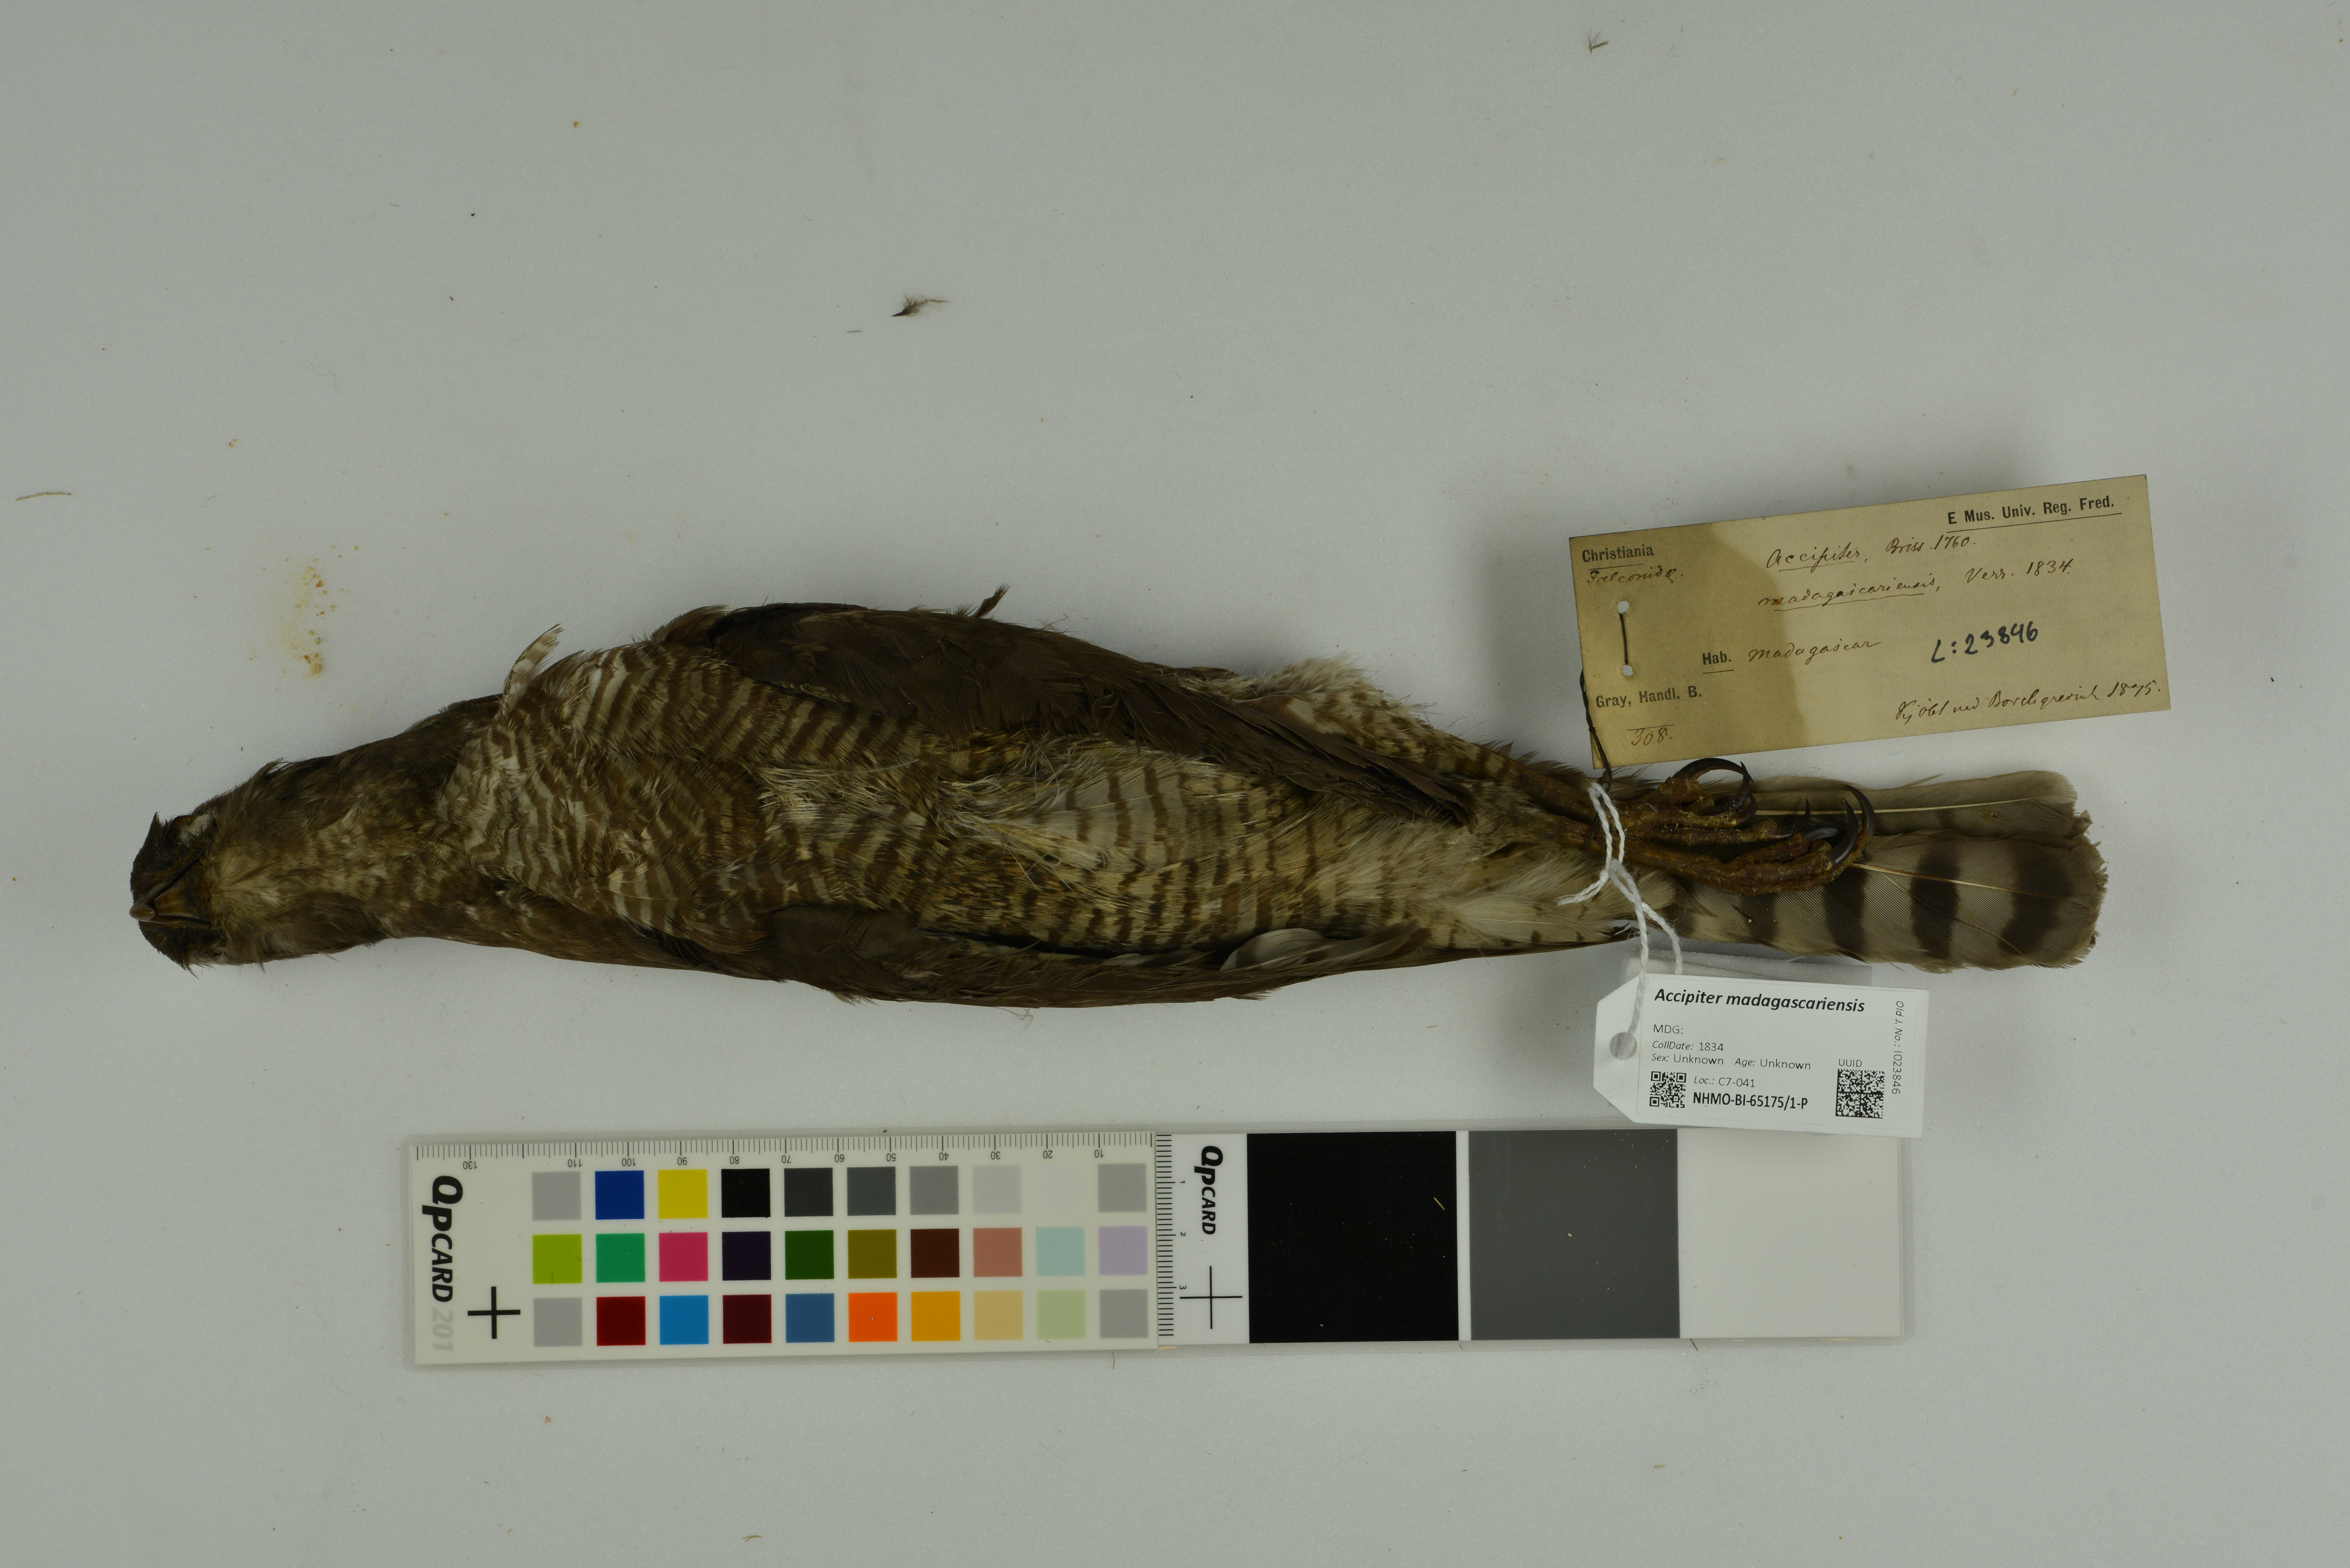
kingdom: Animalia
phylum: Chordata
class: Aves
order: Accipitriformes
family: Accipitridae
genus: Accipiter
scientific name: Accipiter madagascariensis
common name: Madagascar sparrowhawk
